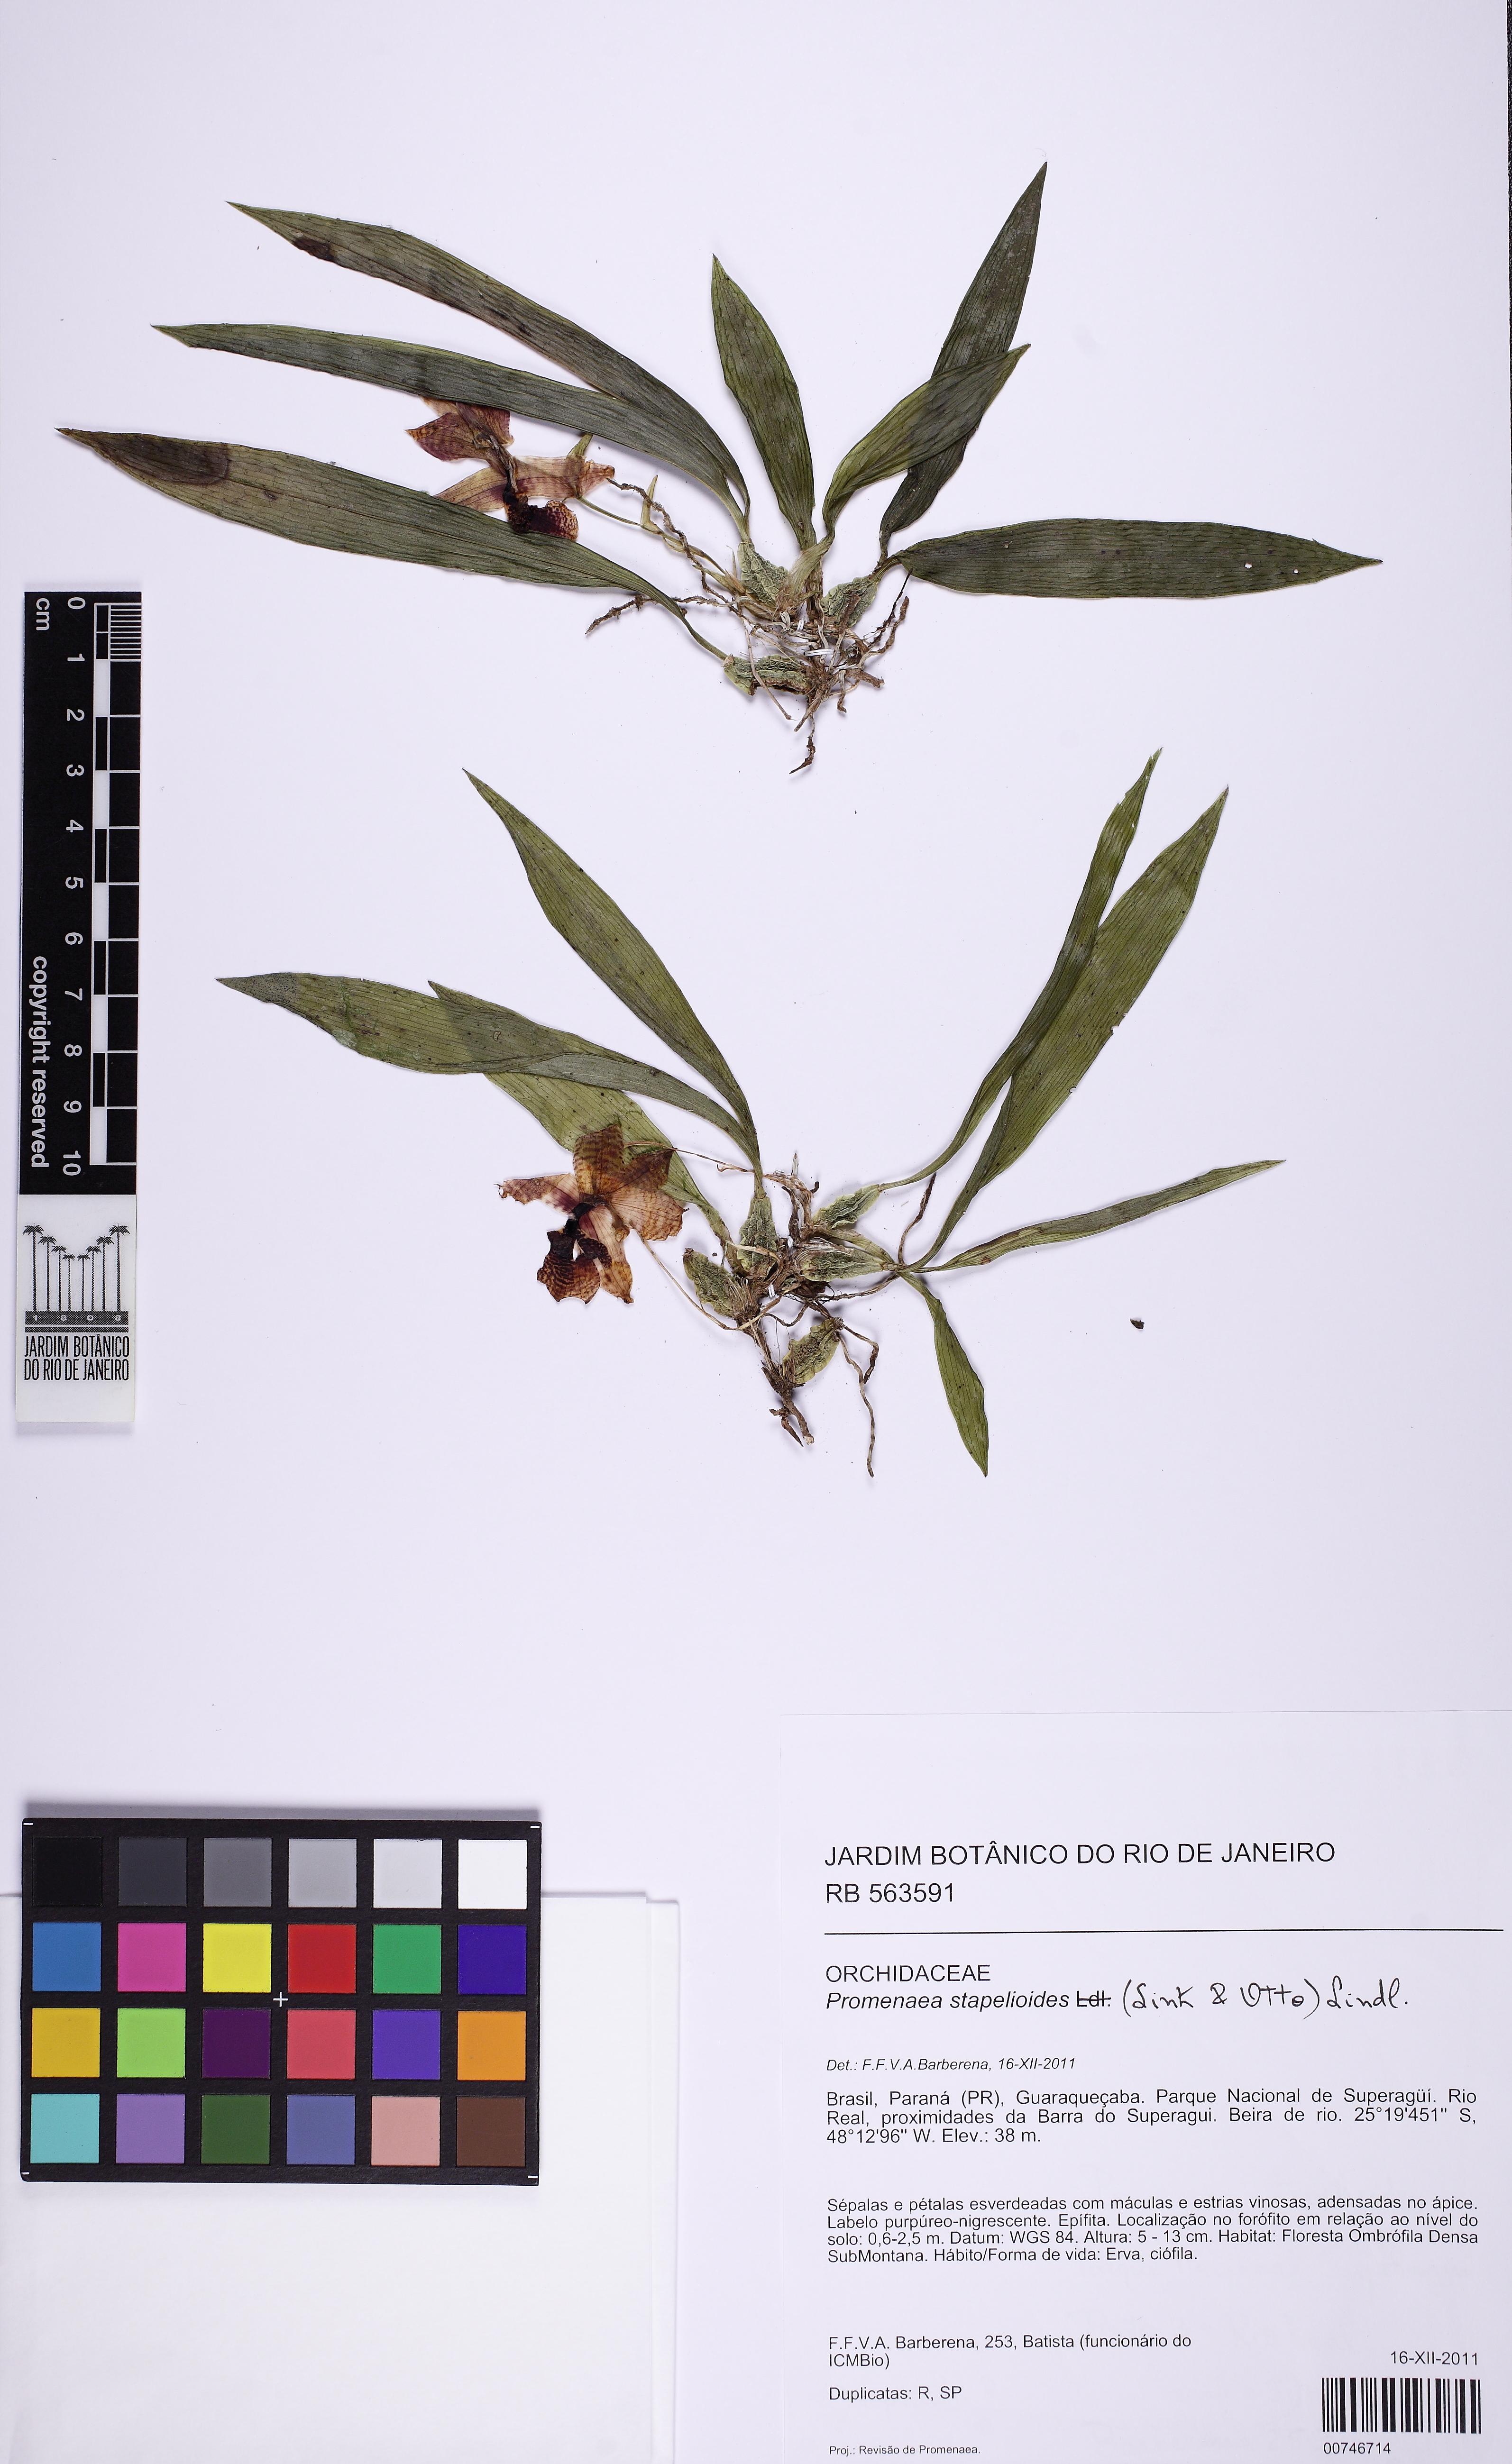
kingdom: Plantae
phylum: Tracheophyta
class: Liliopsida
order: Asparagales
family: Orchidaceae
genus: Promenaea
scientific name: Promenaea stapelioides
